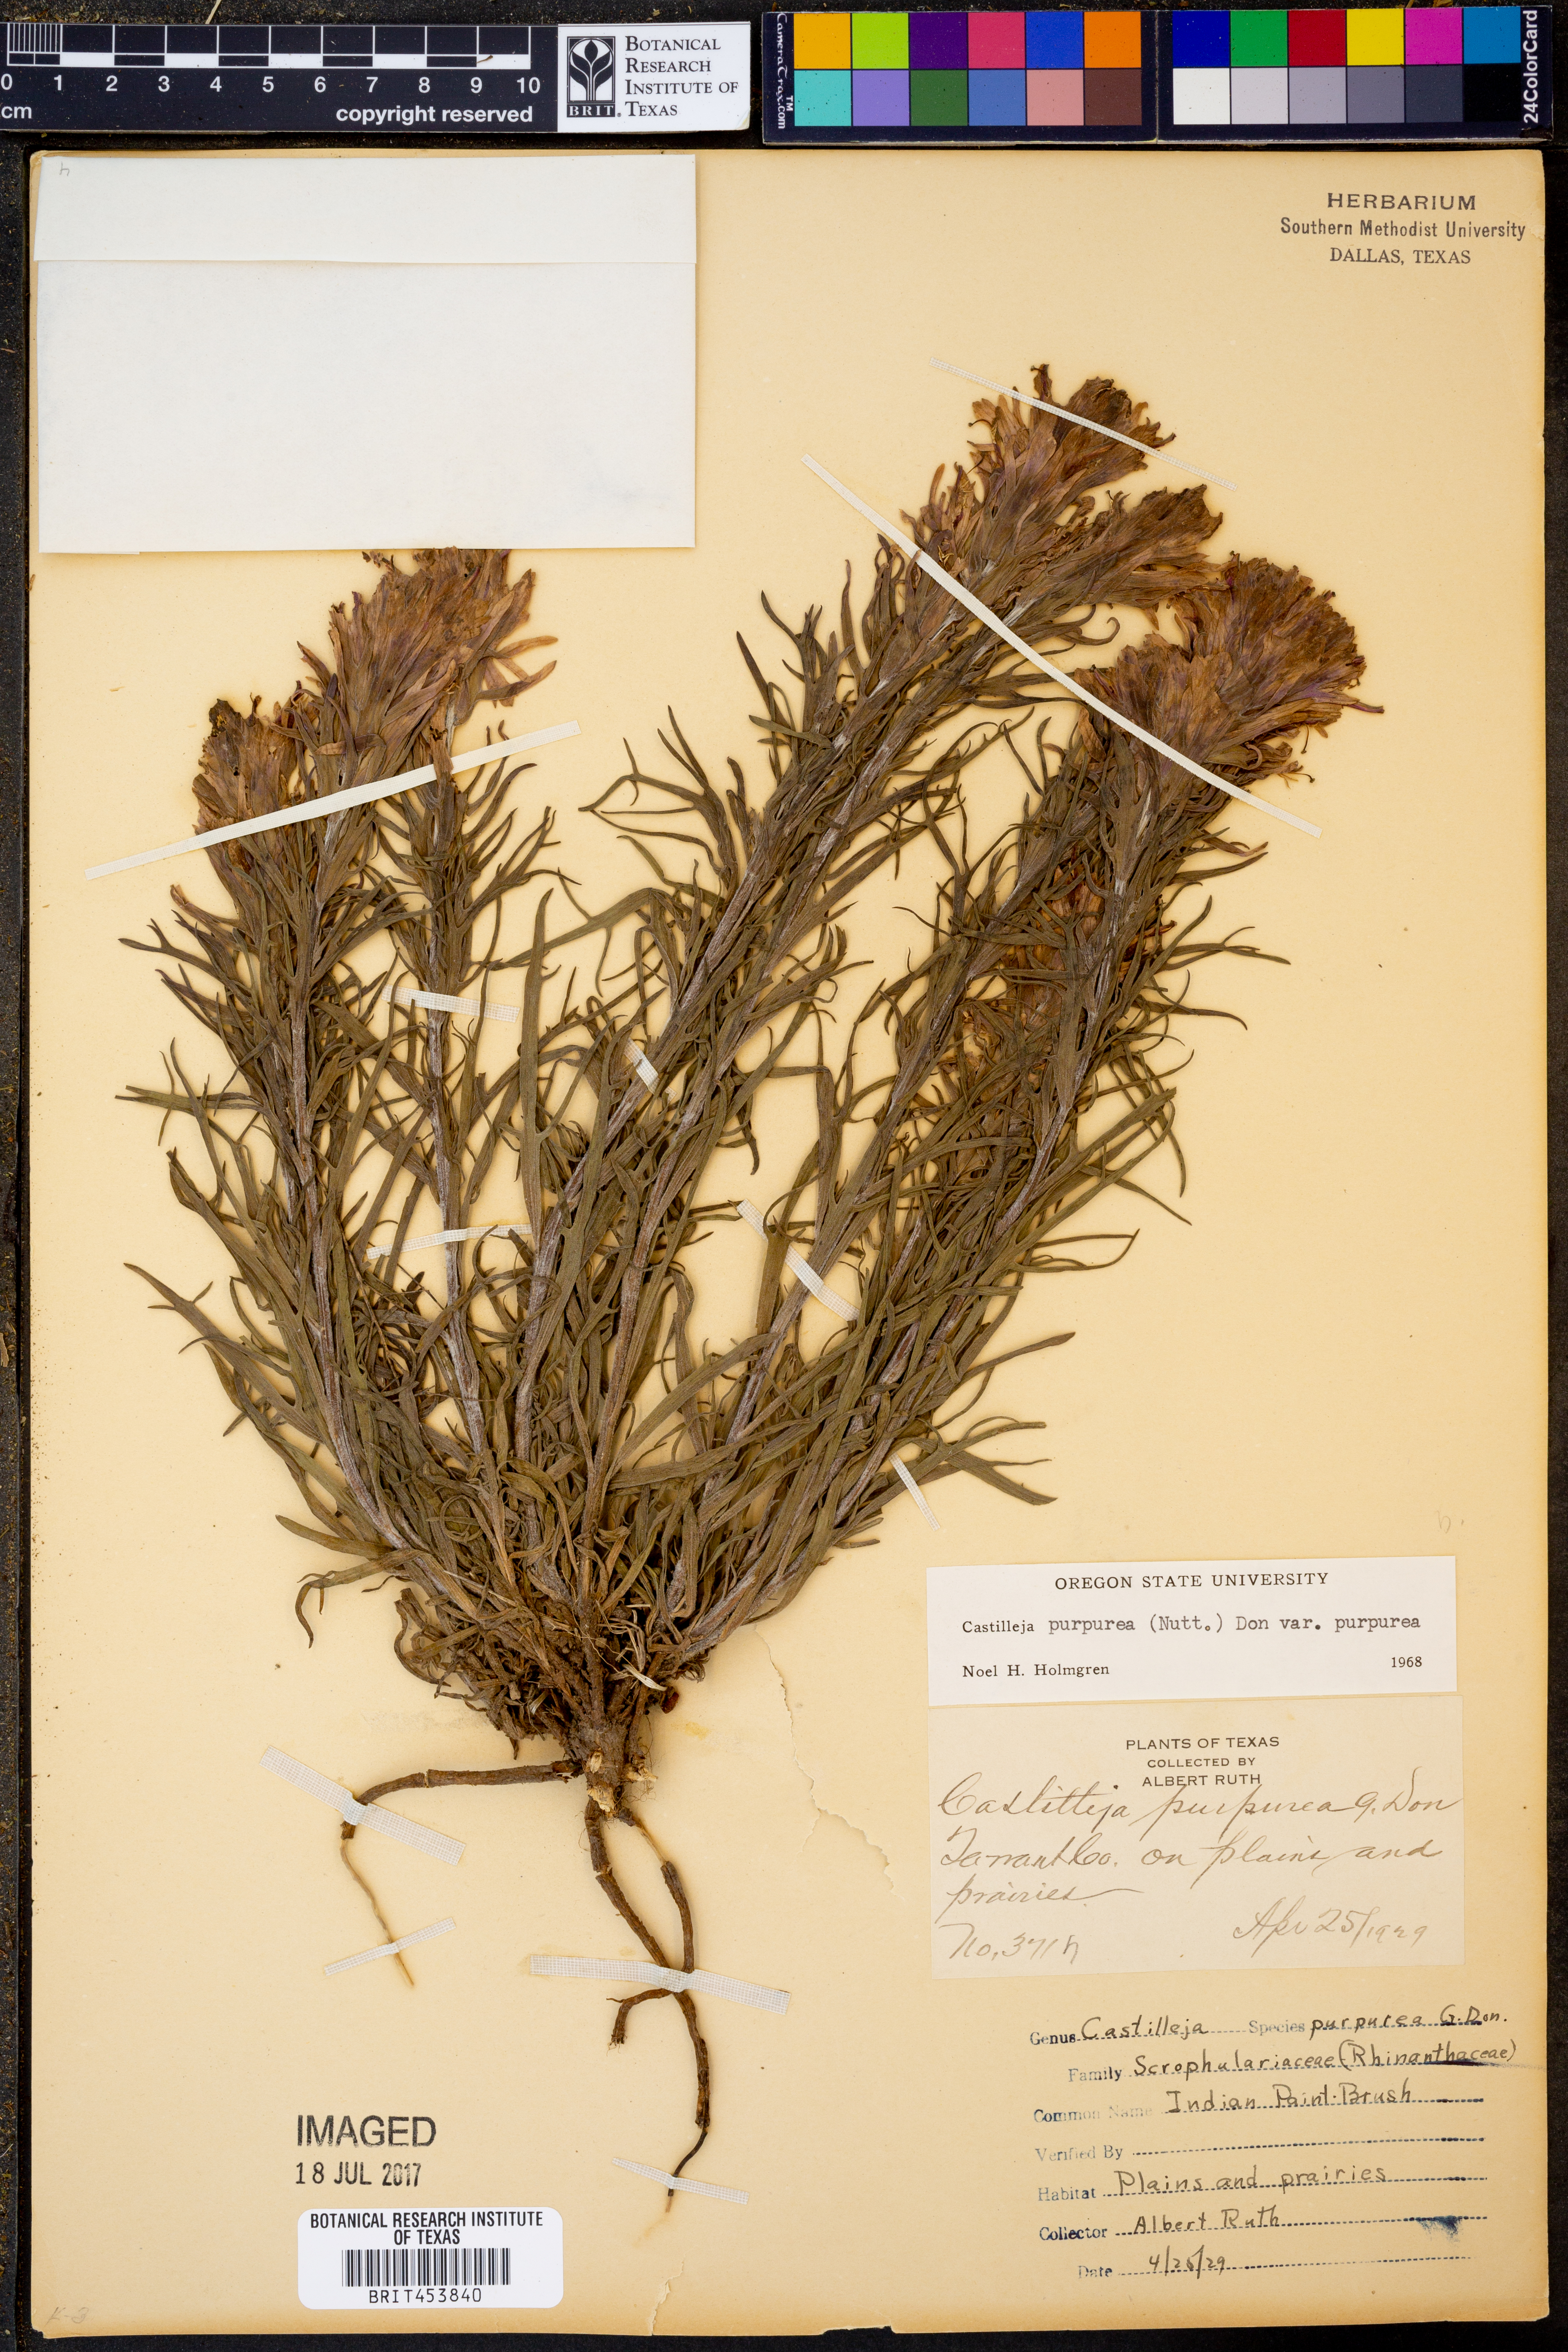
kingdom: Plantae
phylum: Tracheophyta
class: Magnoliopsida
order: Lamiales
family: Orobanchaceae
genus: Castilleja
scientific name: Castilleja purpurea
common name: Plains paintbrush
